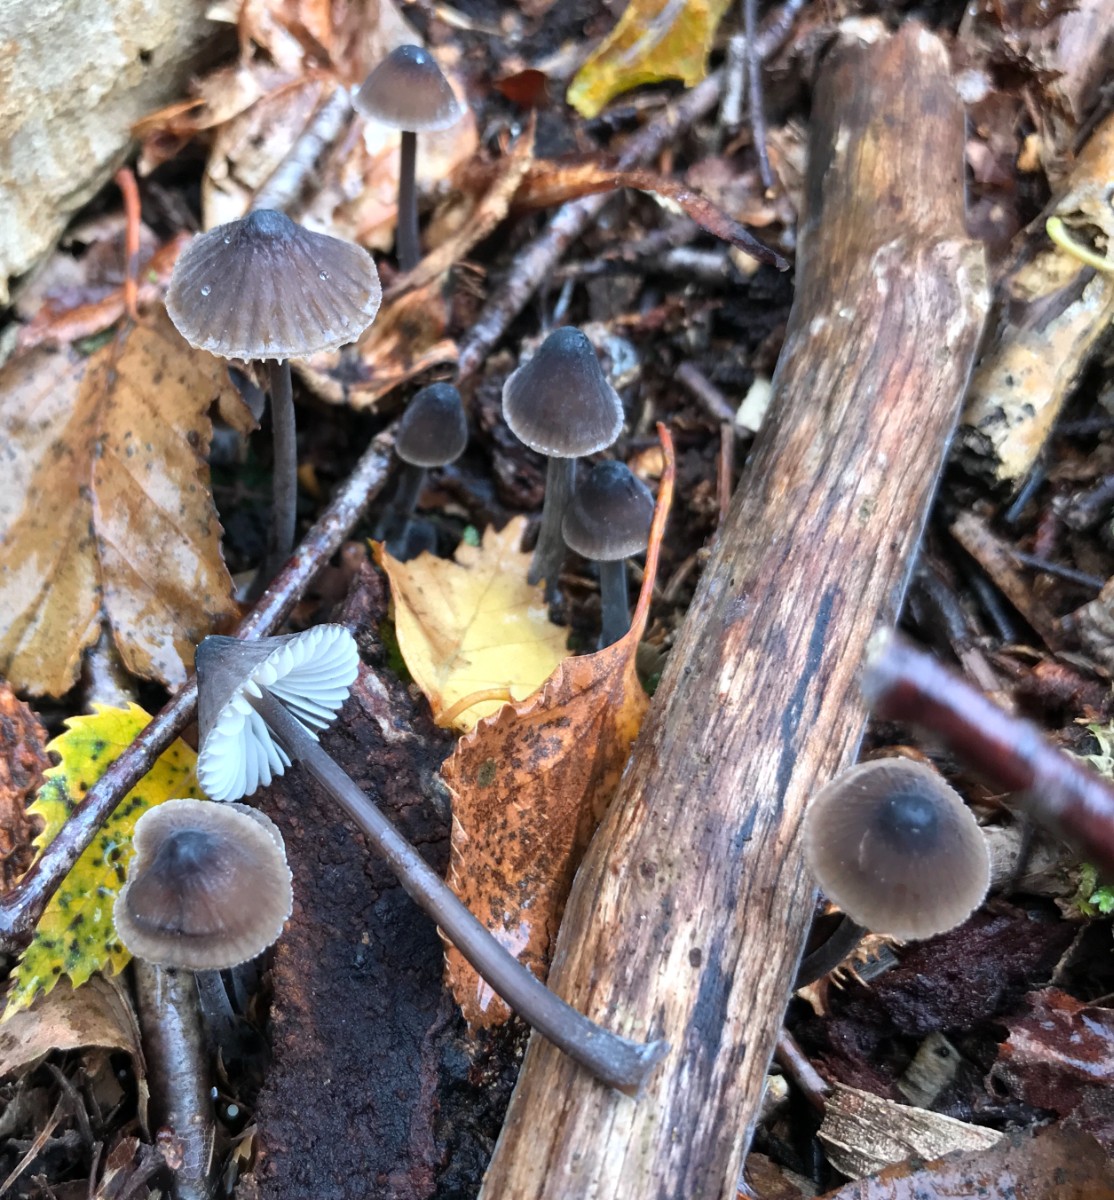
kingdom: Fungi
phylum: Basidiomycota
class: Agaricomycetes
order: Agaricales
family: Mycenaceae
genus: Mycena
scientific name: Mycena galopus
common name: hvidmælket huesvamp
